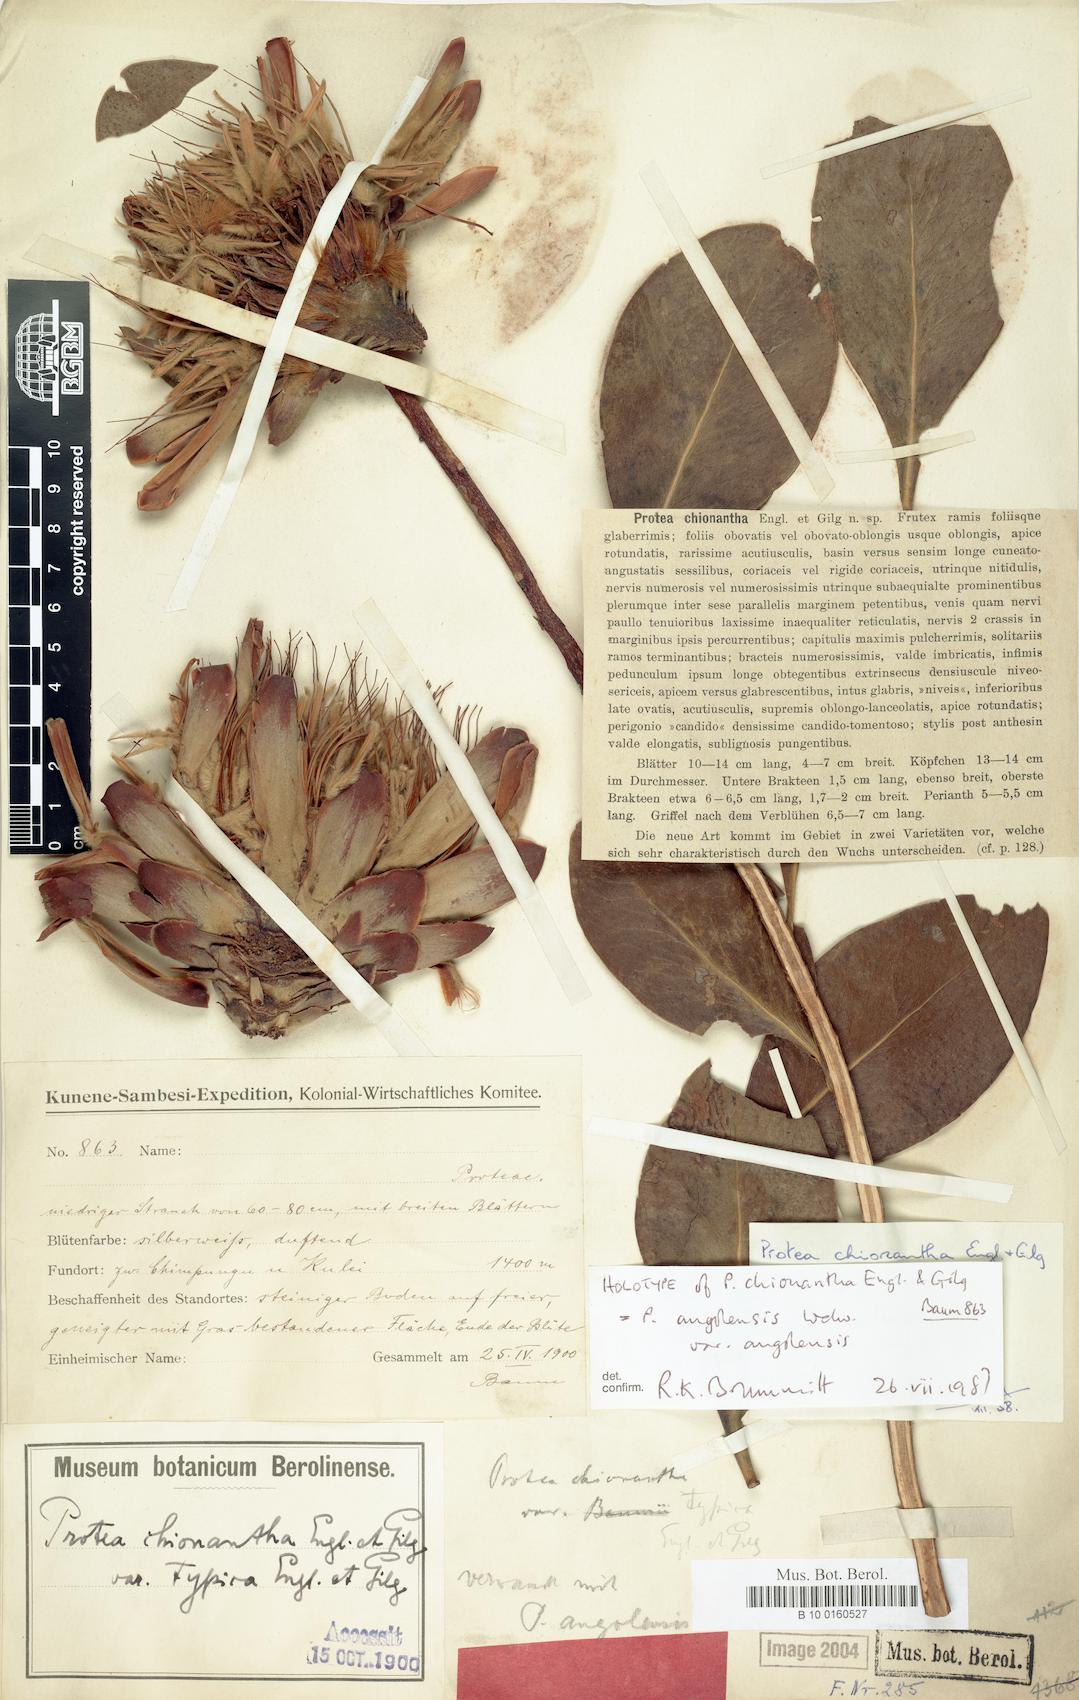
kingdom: Plantae
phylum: Tracheophyta
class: Magnoliopsida
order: Proteales
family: Proteaceae
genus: Protea
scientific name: Protea angolensis
